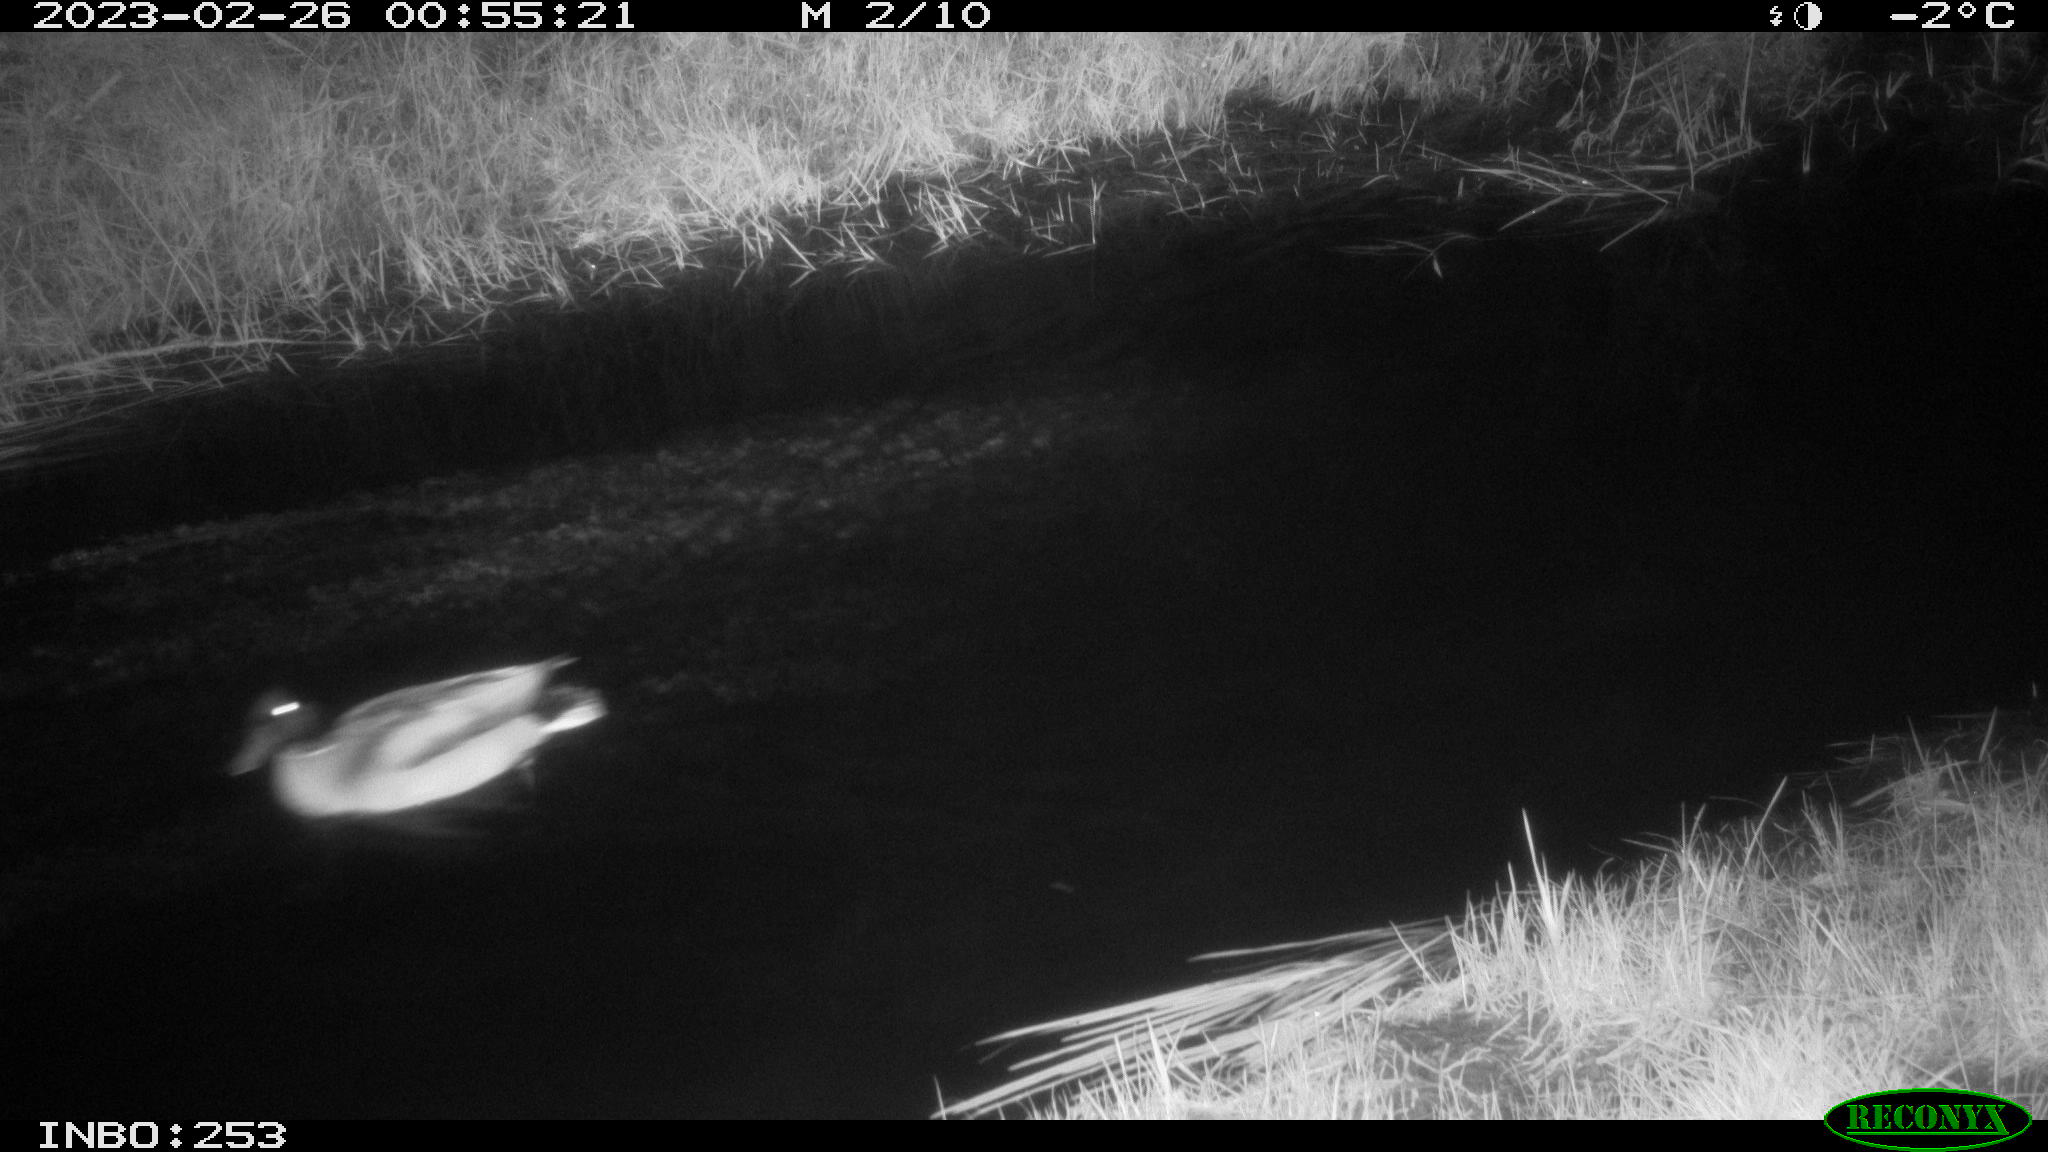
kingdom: Animalia
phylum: Chordata
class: Aves
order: Anseriformes
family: Anatidae
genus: Anas
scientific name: Anas
